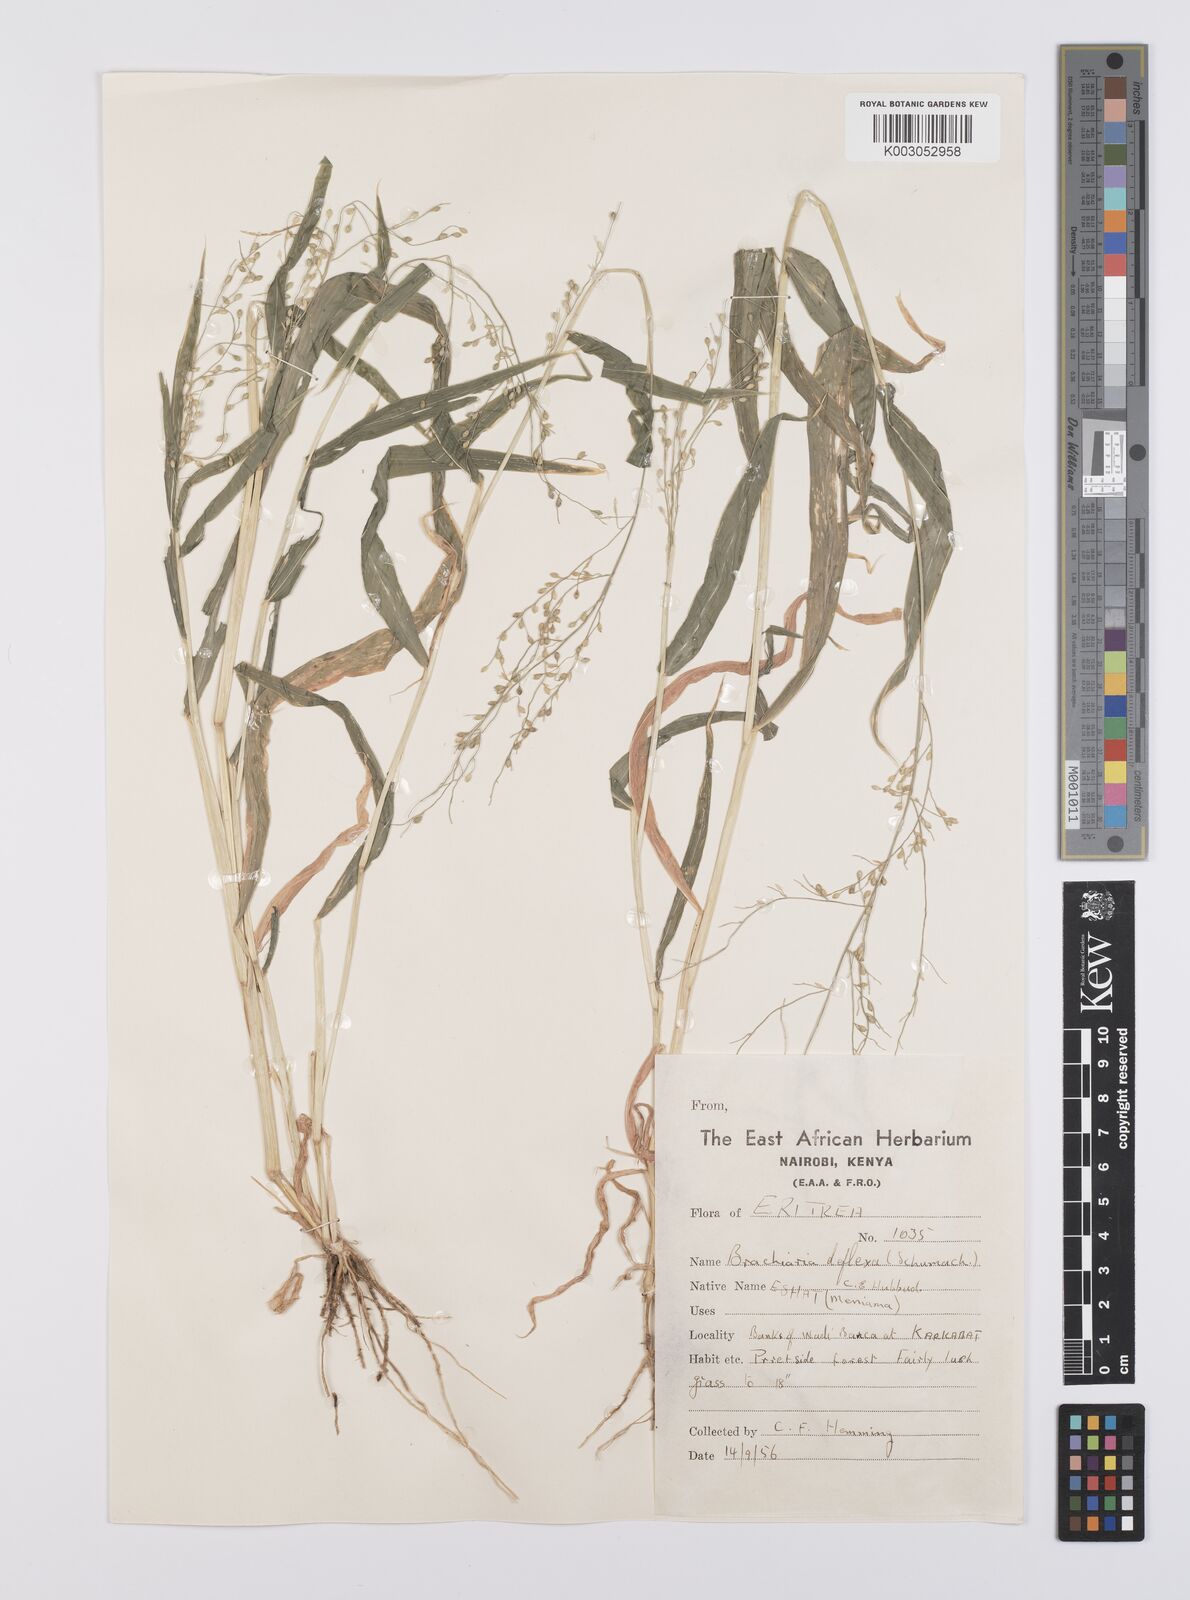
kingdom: Plantae
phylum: Tracheophyta
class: Liliopsida
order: Poales
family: Poaceae
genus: Urochloa
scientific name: Urochloa deflexa
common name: Guinea millet
